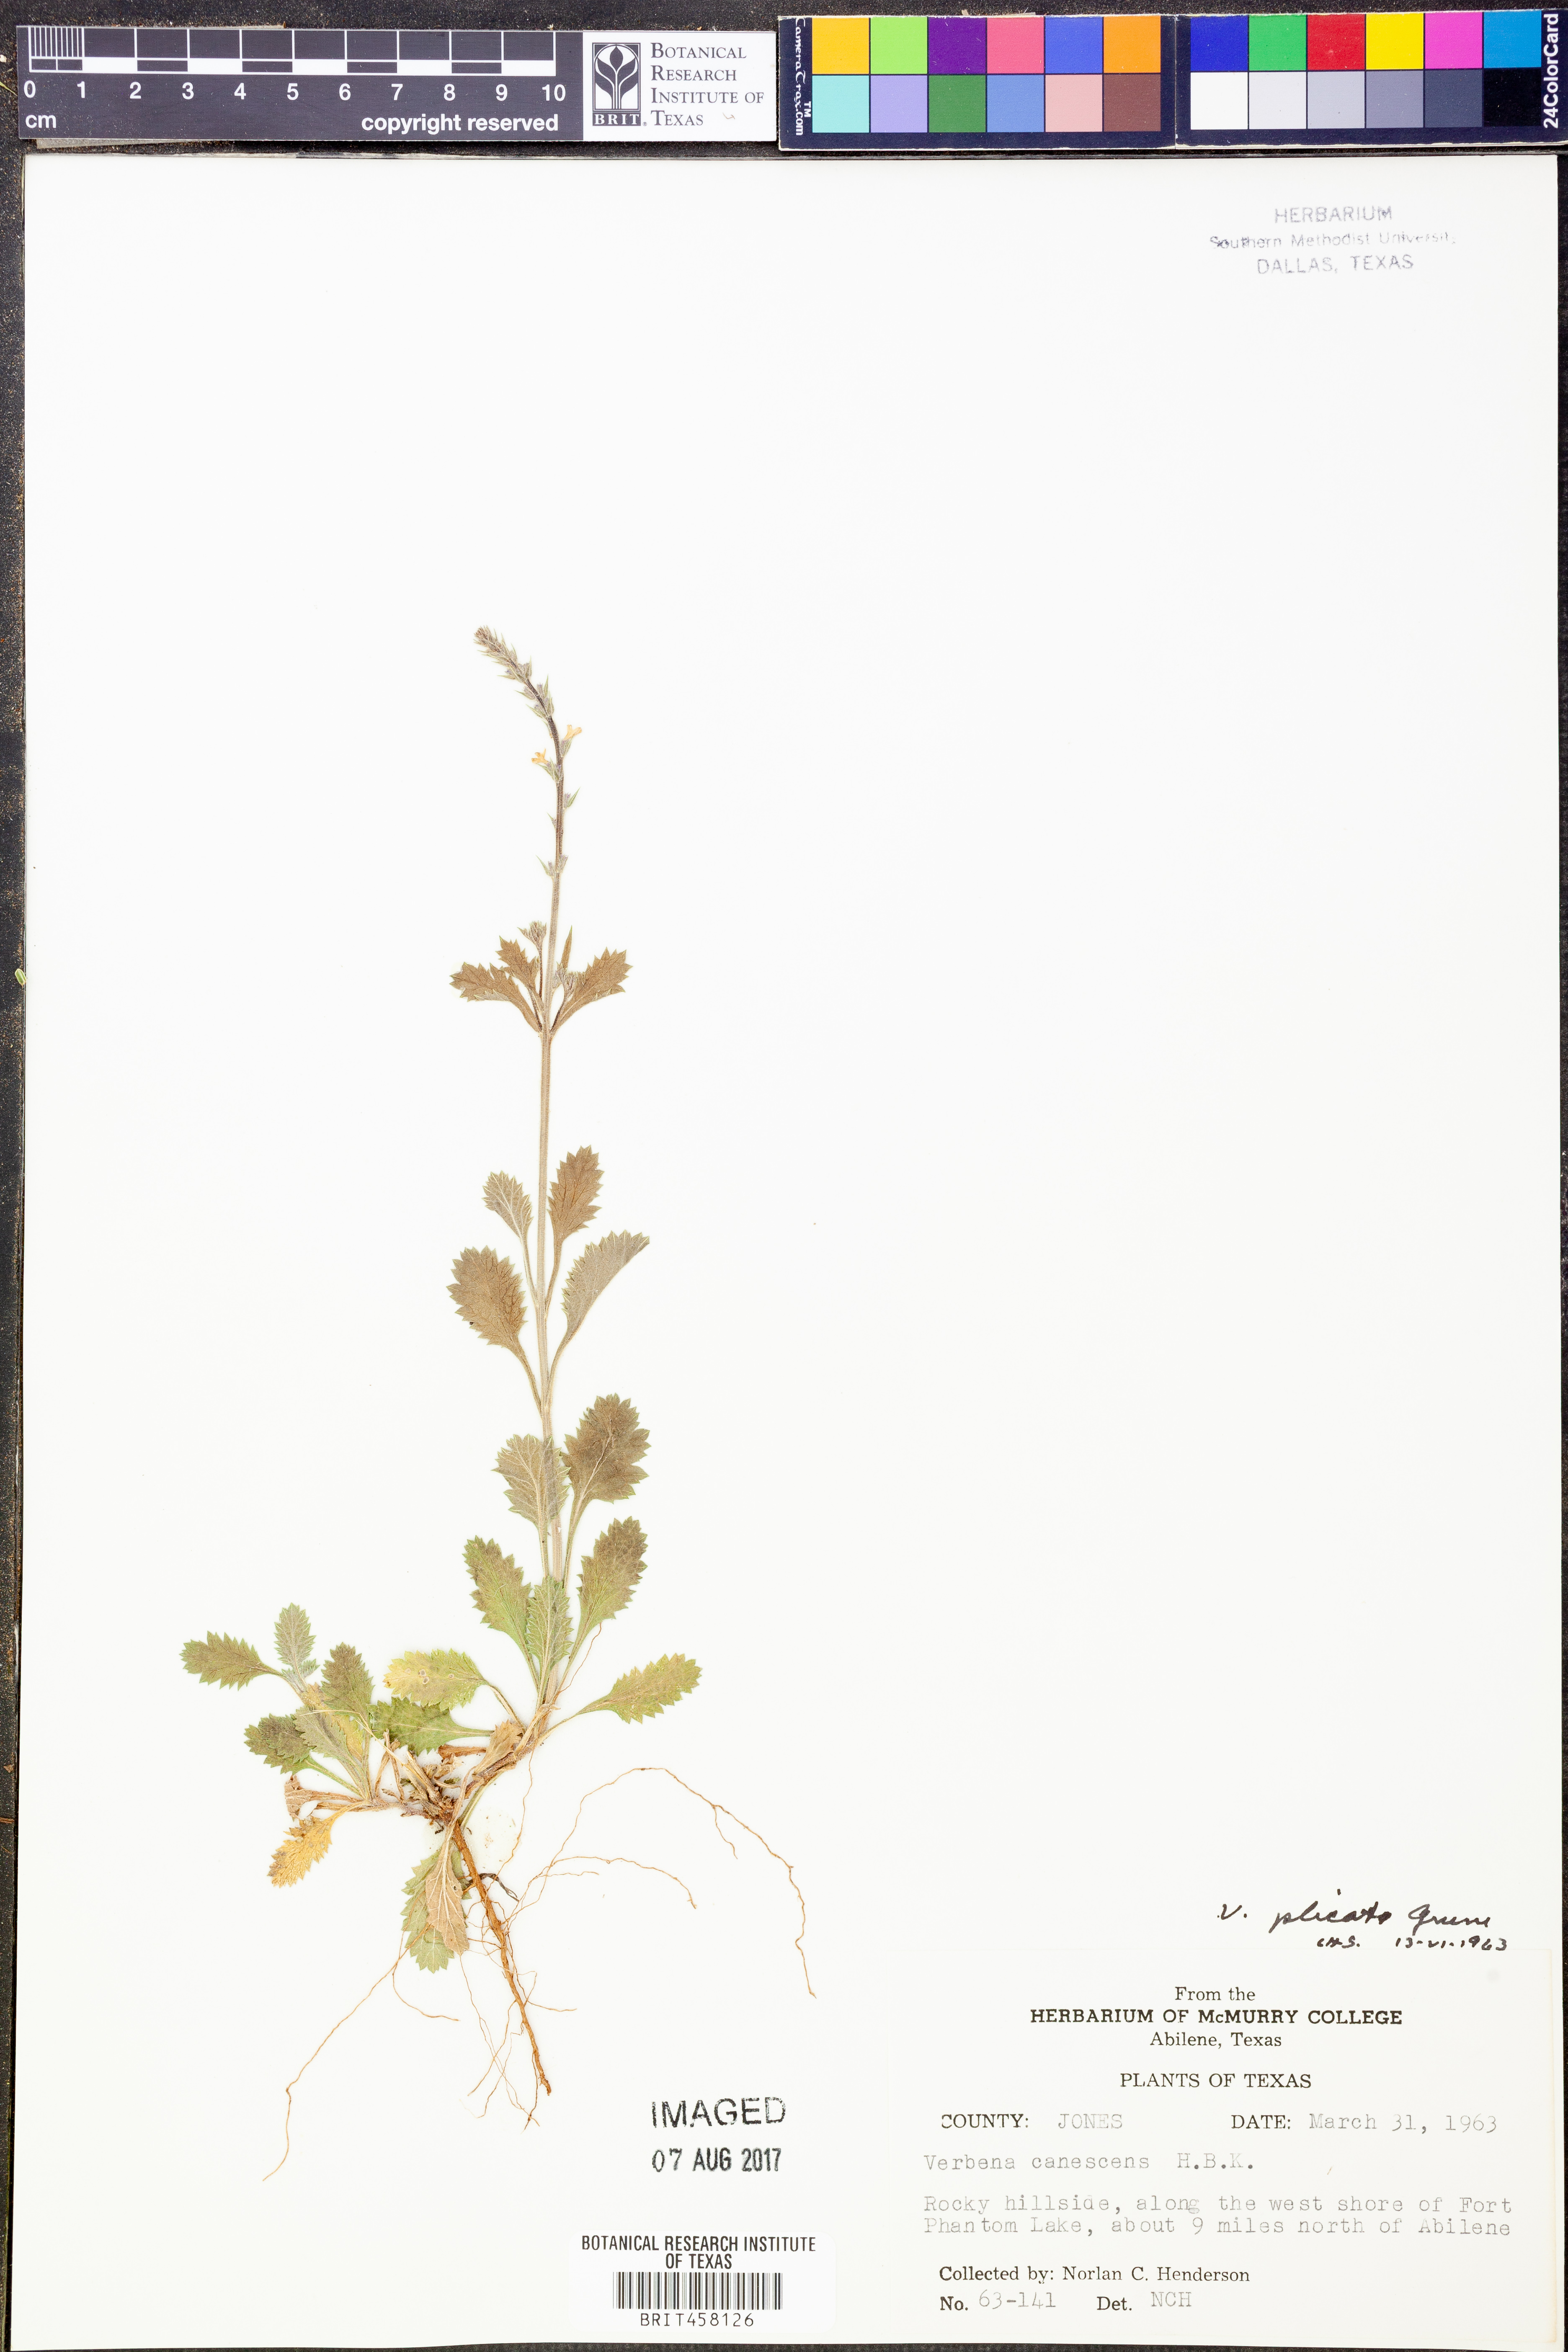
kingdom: Plantae
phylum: Tracheophyta
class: Magnoliopsida
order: Lamiales
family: Verbenaceae
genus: Verbena
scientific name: Verbena plicata
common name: Fan-leaf vervain
